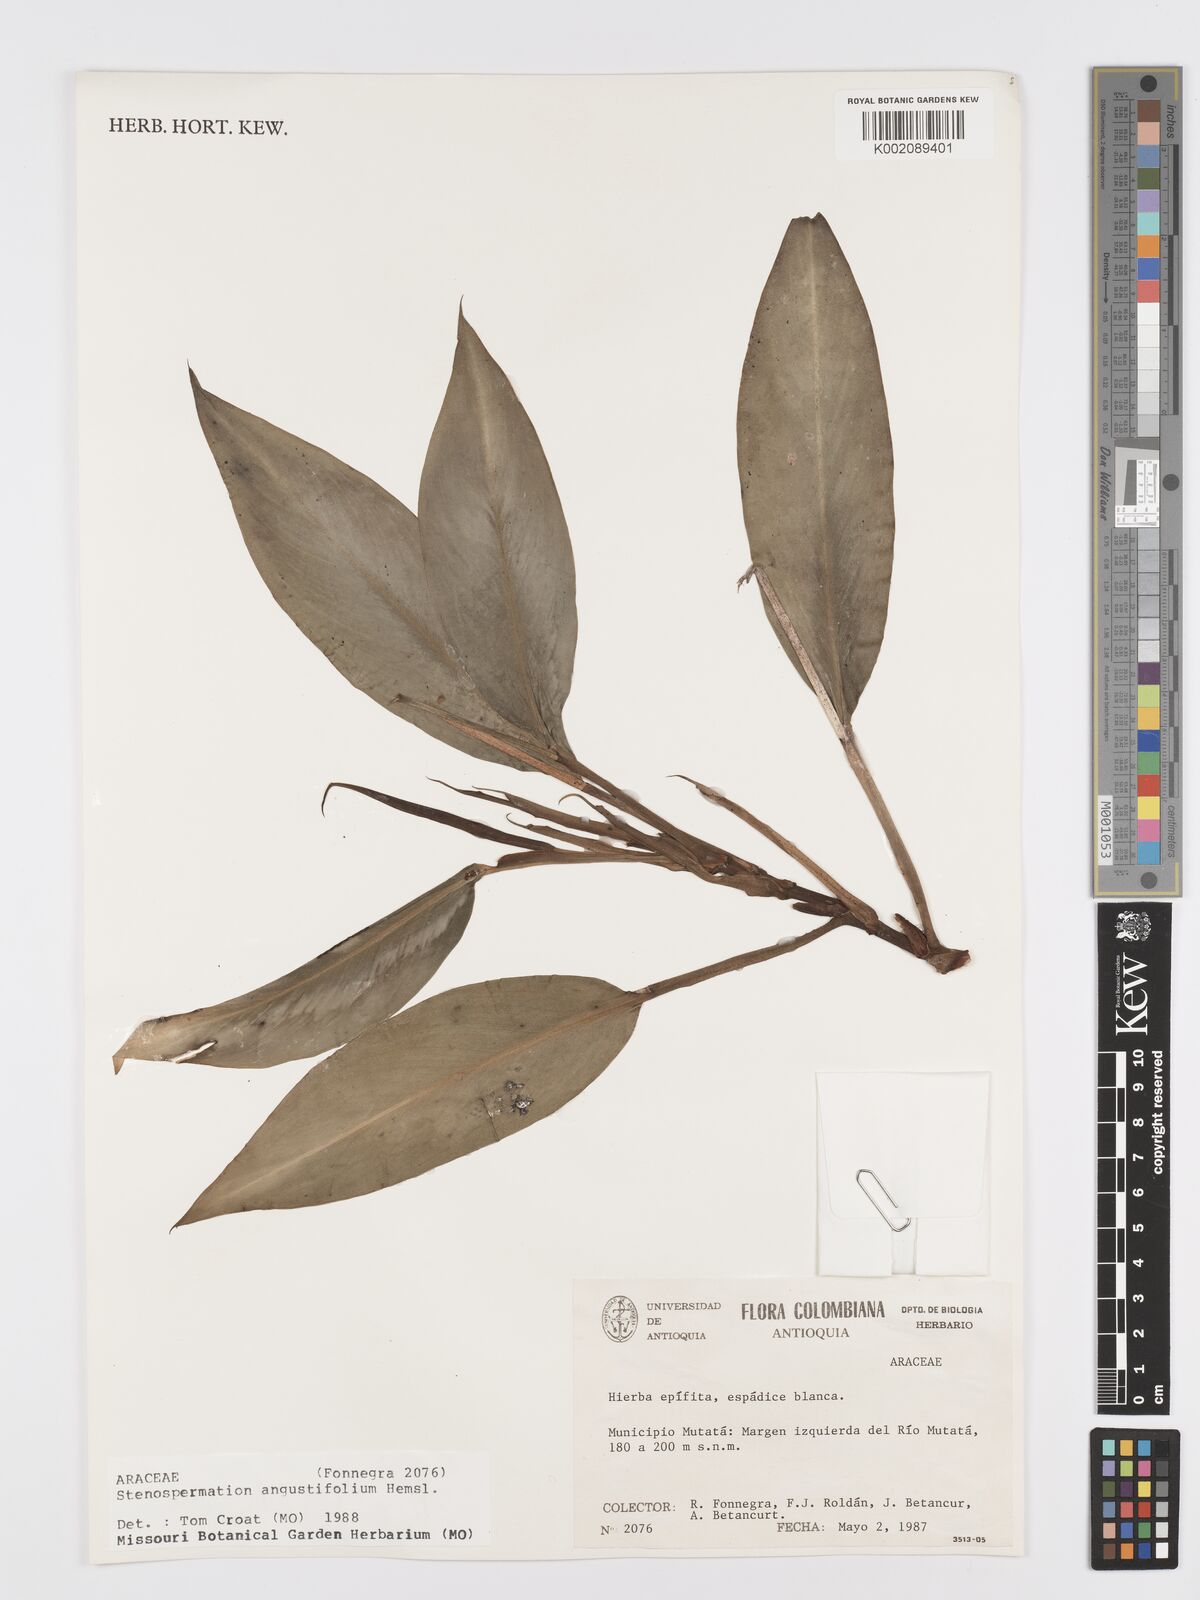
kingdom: Plantae
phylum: Tracheophyta
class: Liliopsida
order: Alismatales
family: Araceae
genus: Stenospermation
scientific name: Stenospermation angustifolium
